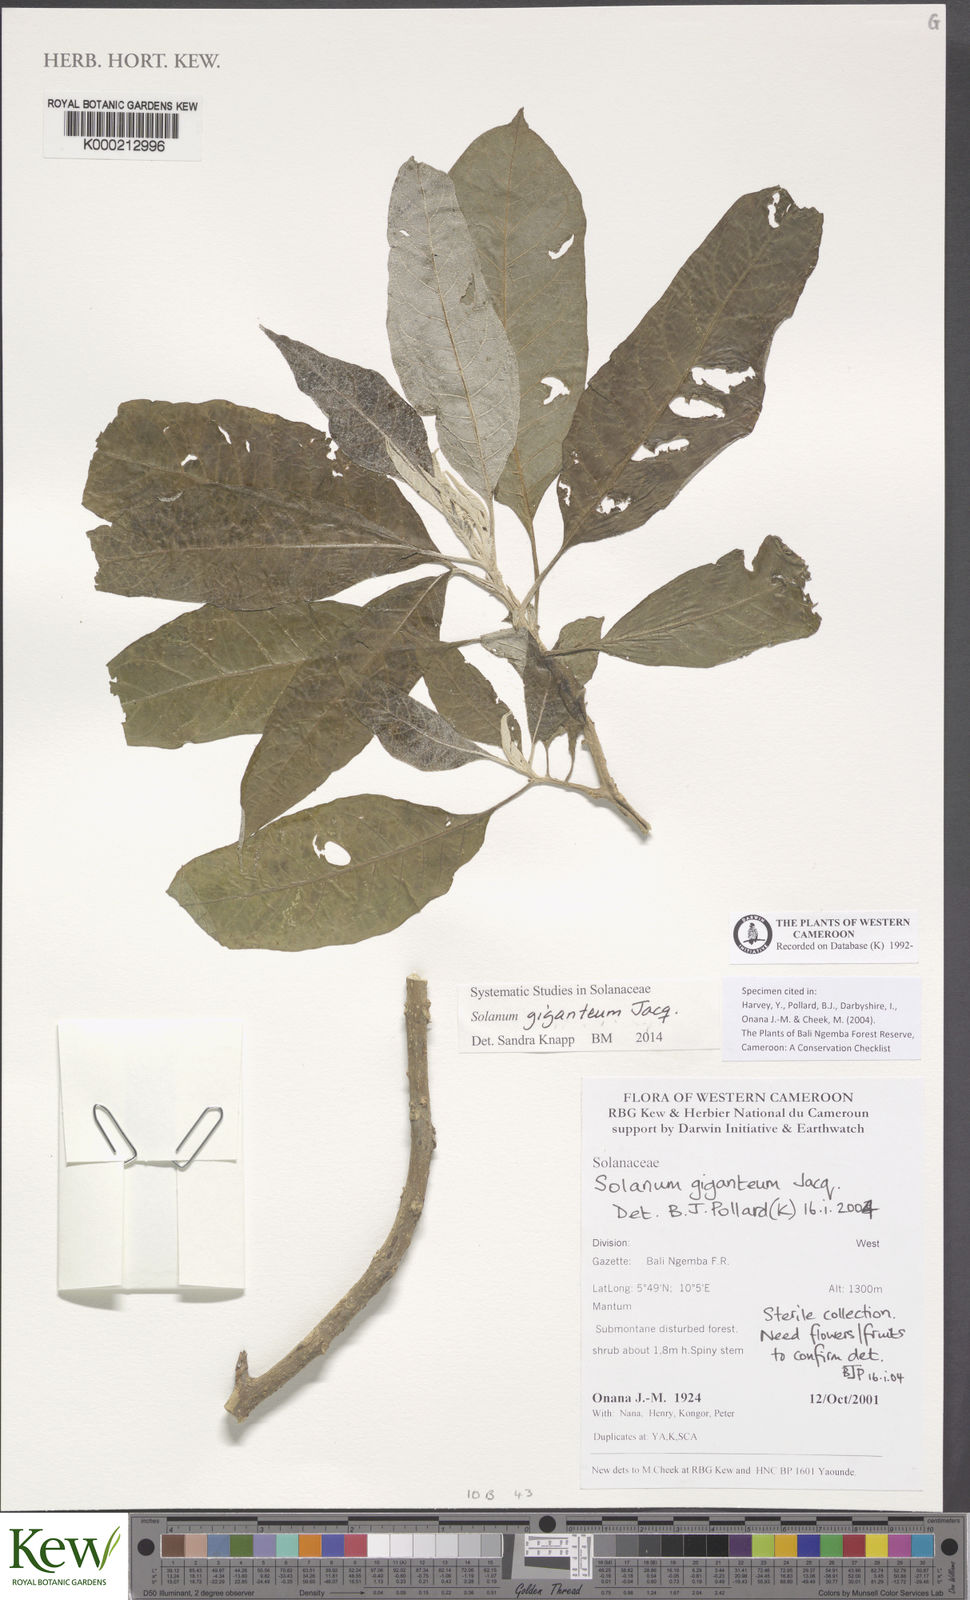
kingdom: Plantae
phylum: Tracheophyta
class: Magnoliopsida
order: Solanales
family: Solanaceae
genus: Solanum
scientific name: Solanum giganteum
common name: Healing-leaf-tree
